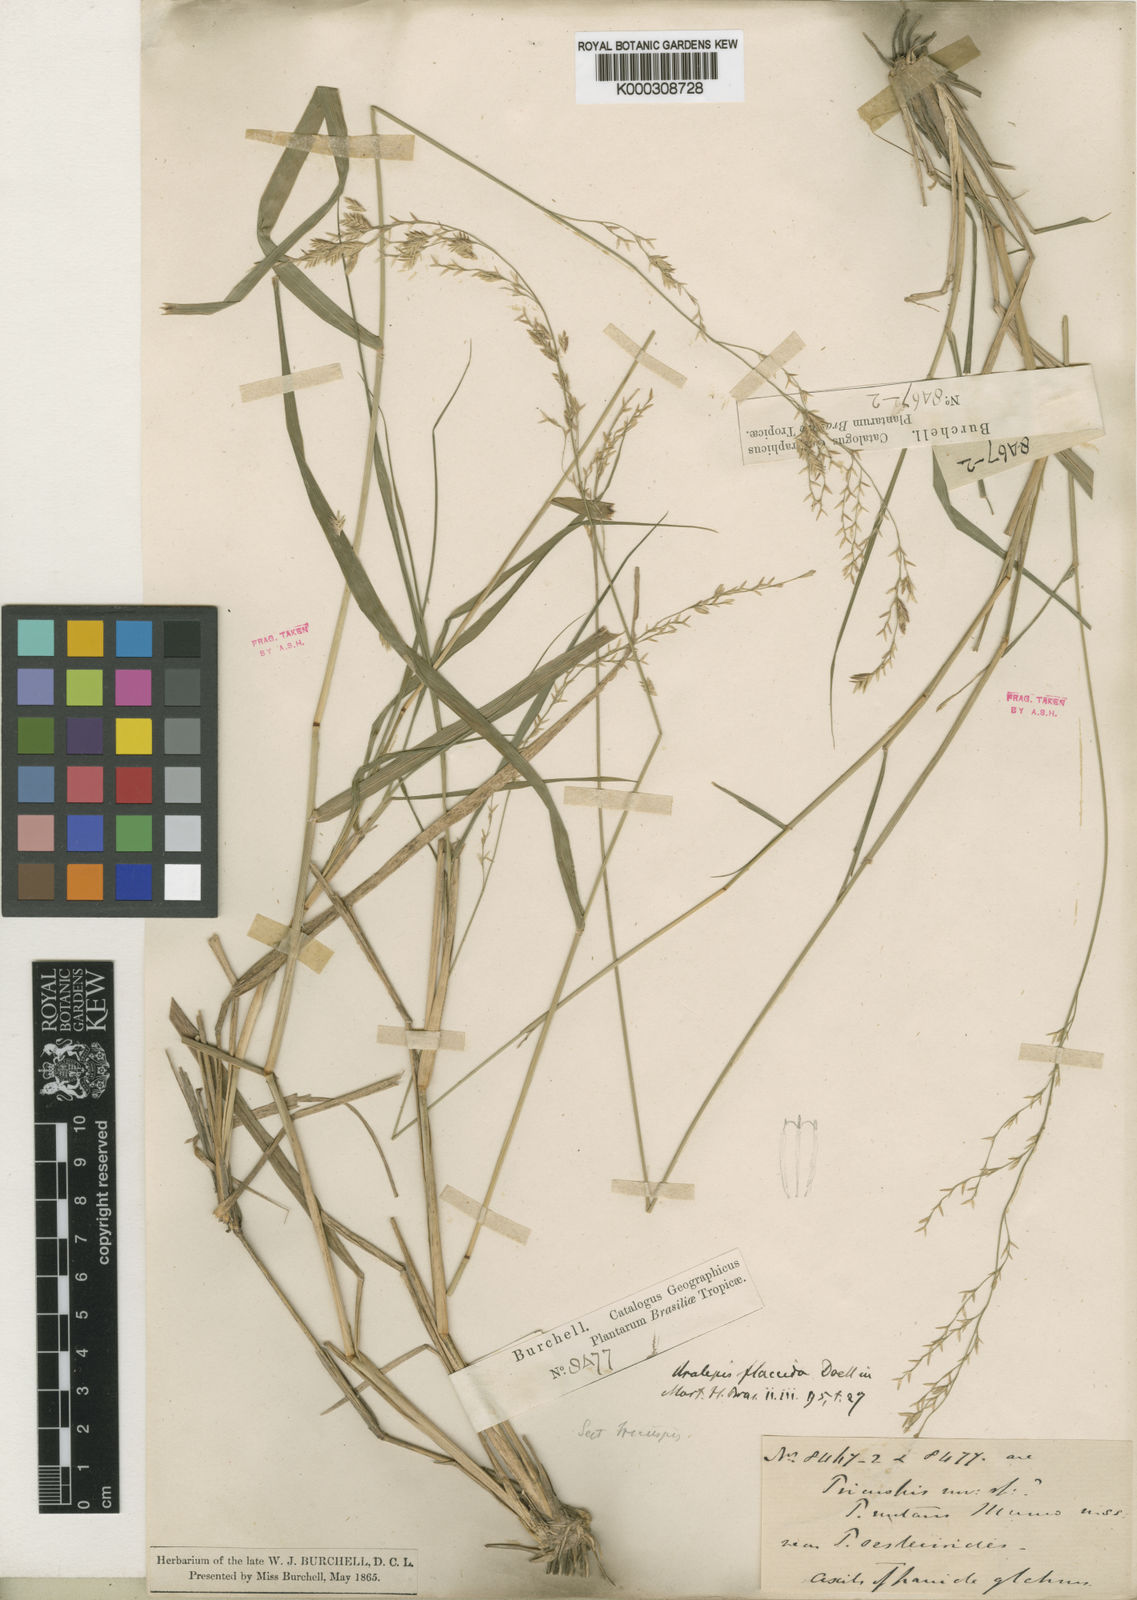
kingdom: Plantae
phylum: Tracheophyta
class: Liliopsida
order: Poales
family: Poaceae
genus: Tridens
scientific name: Tridens flaccidus
